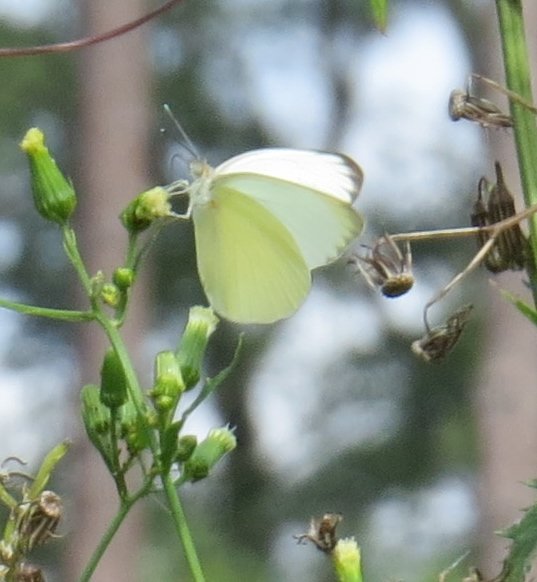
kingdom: Animalia
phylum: Arthropoda
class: Insecta
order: Lepidoptera
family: Pieridae
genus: Ascia
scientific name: Ascia monuste
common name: Great Southern White
